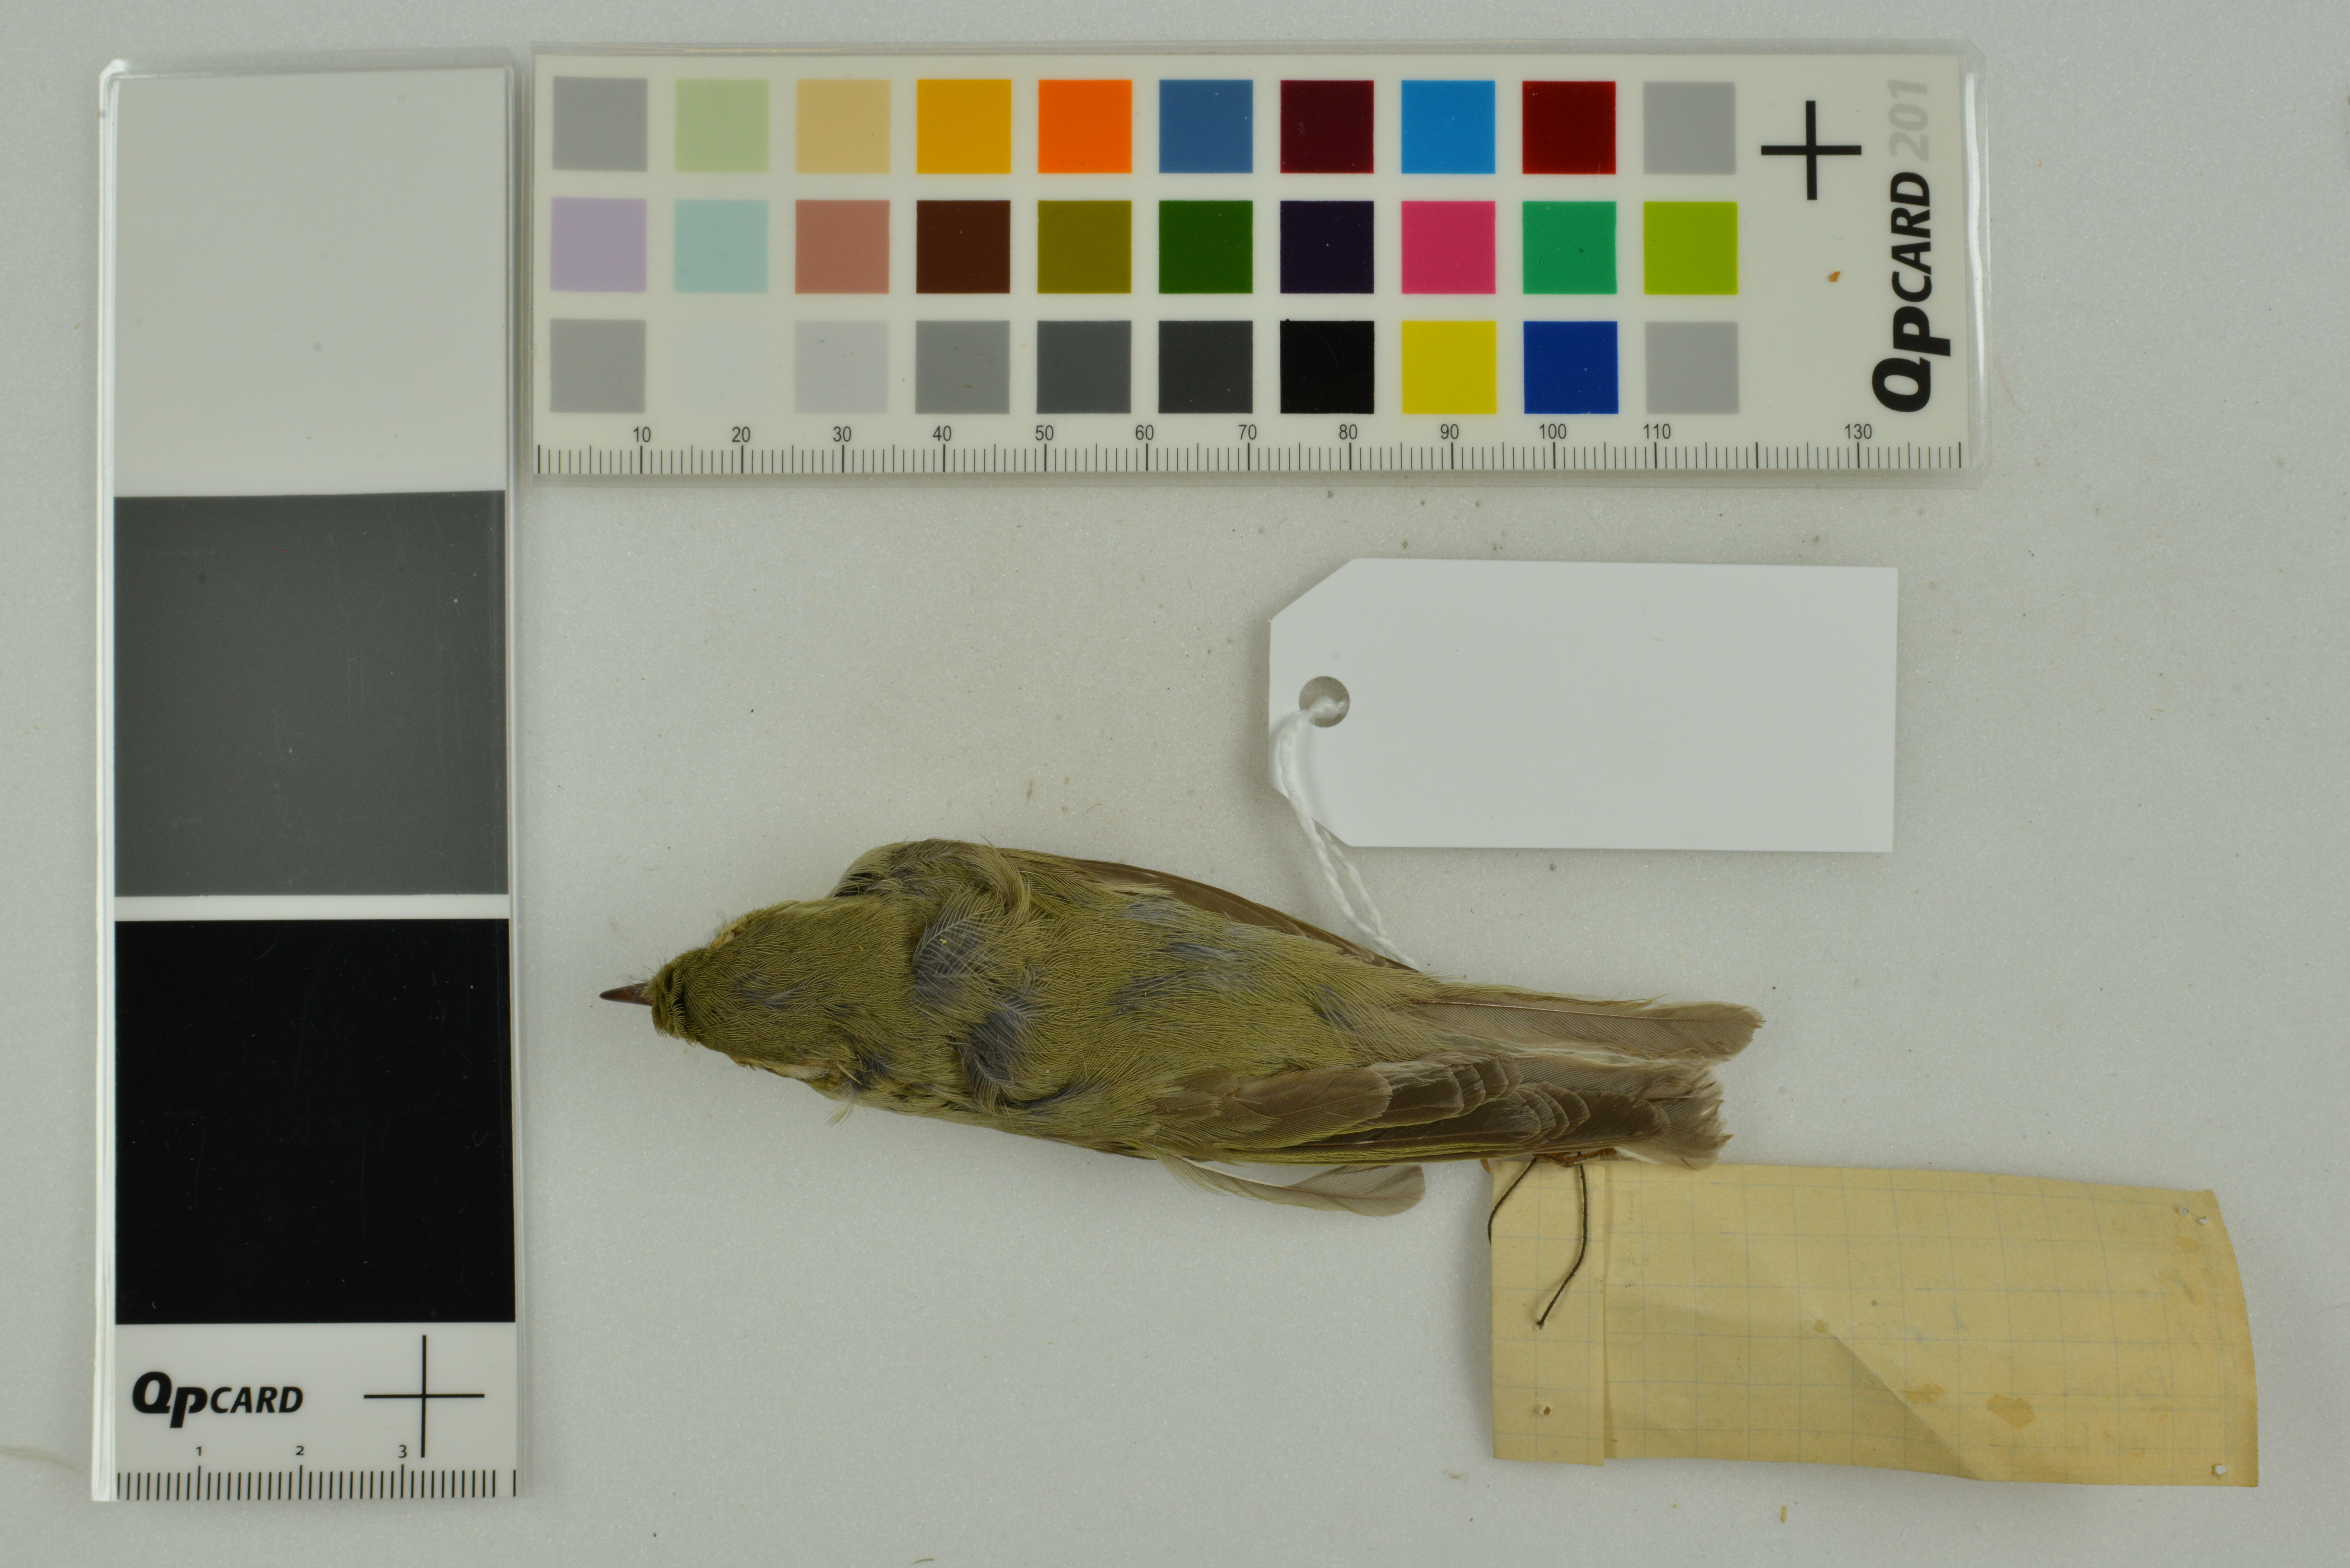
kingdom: Animalia
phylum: Chordata
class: Aves
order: Passeriformes
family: Phylloscopidae
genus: Phylloscopus
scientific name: Phylloscopus nitidus
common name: Green warbler
